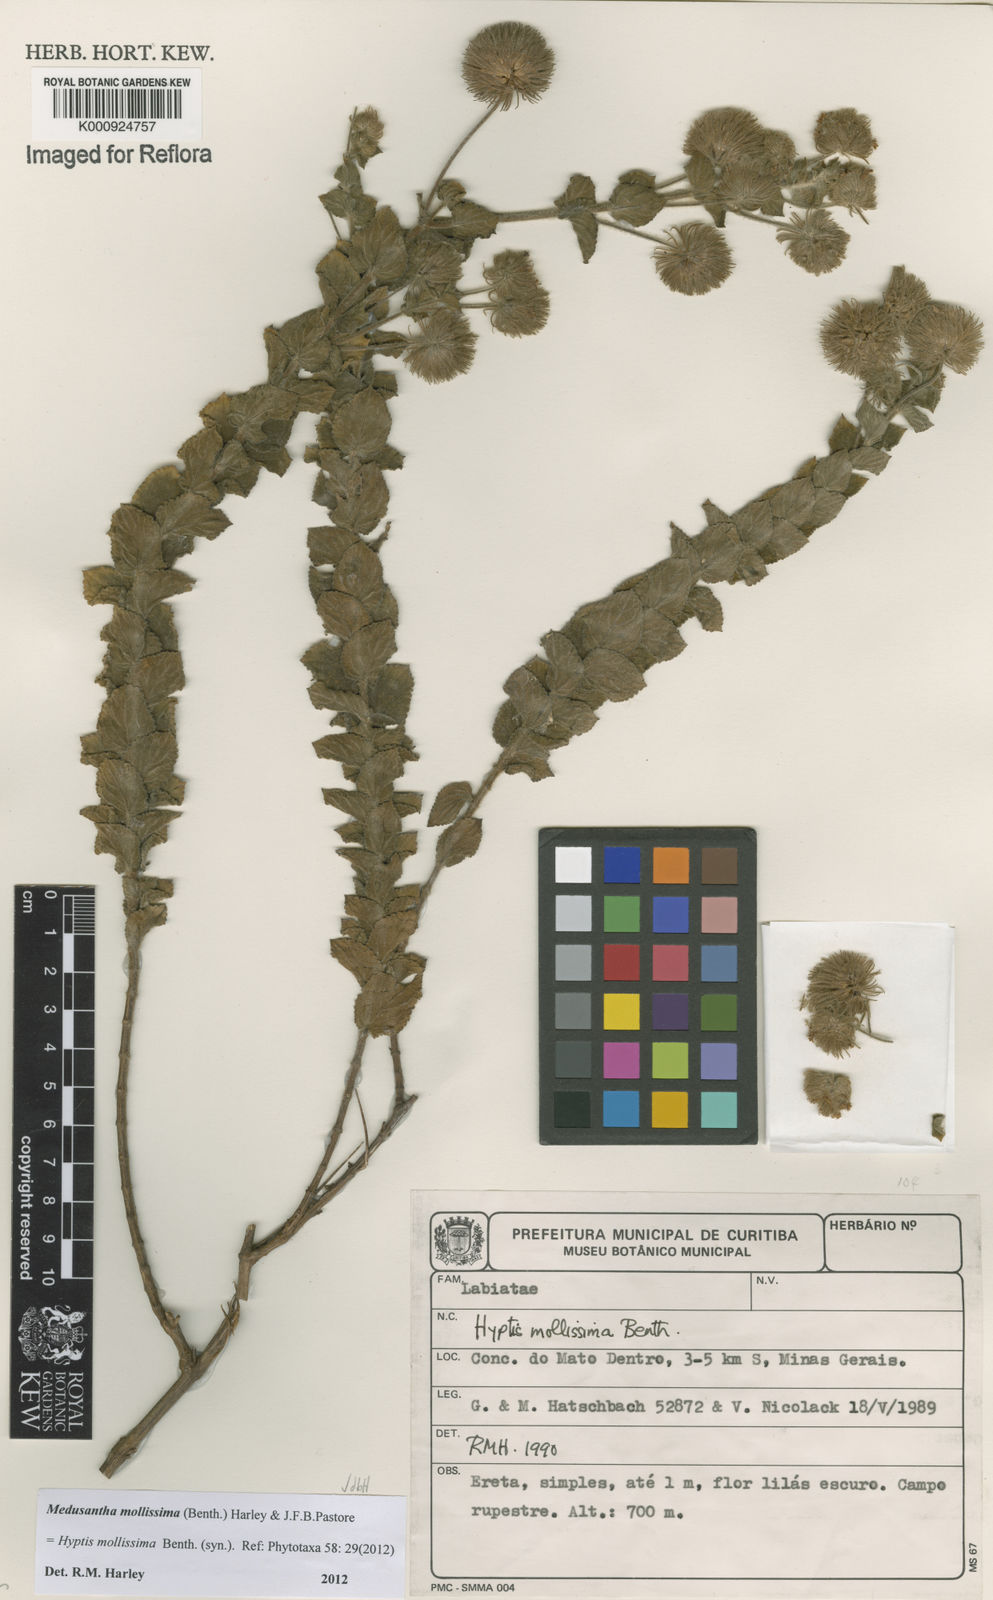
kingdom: Plantae
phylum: Tracheophyta
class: Magnoliopsida
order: Lamiales
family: Lamiaceae
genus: Medusantha
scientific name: Medusantha mollissima
